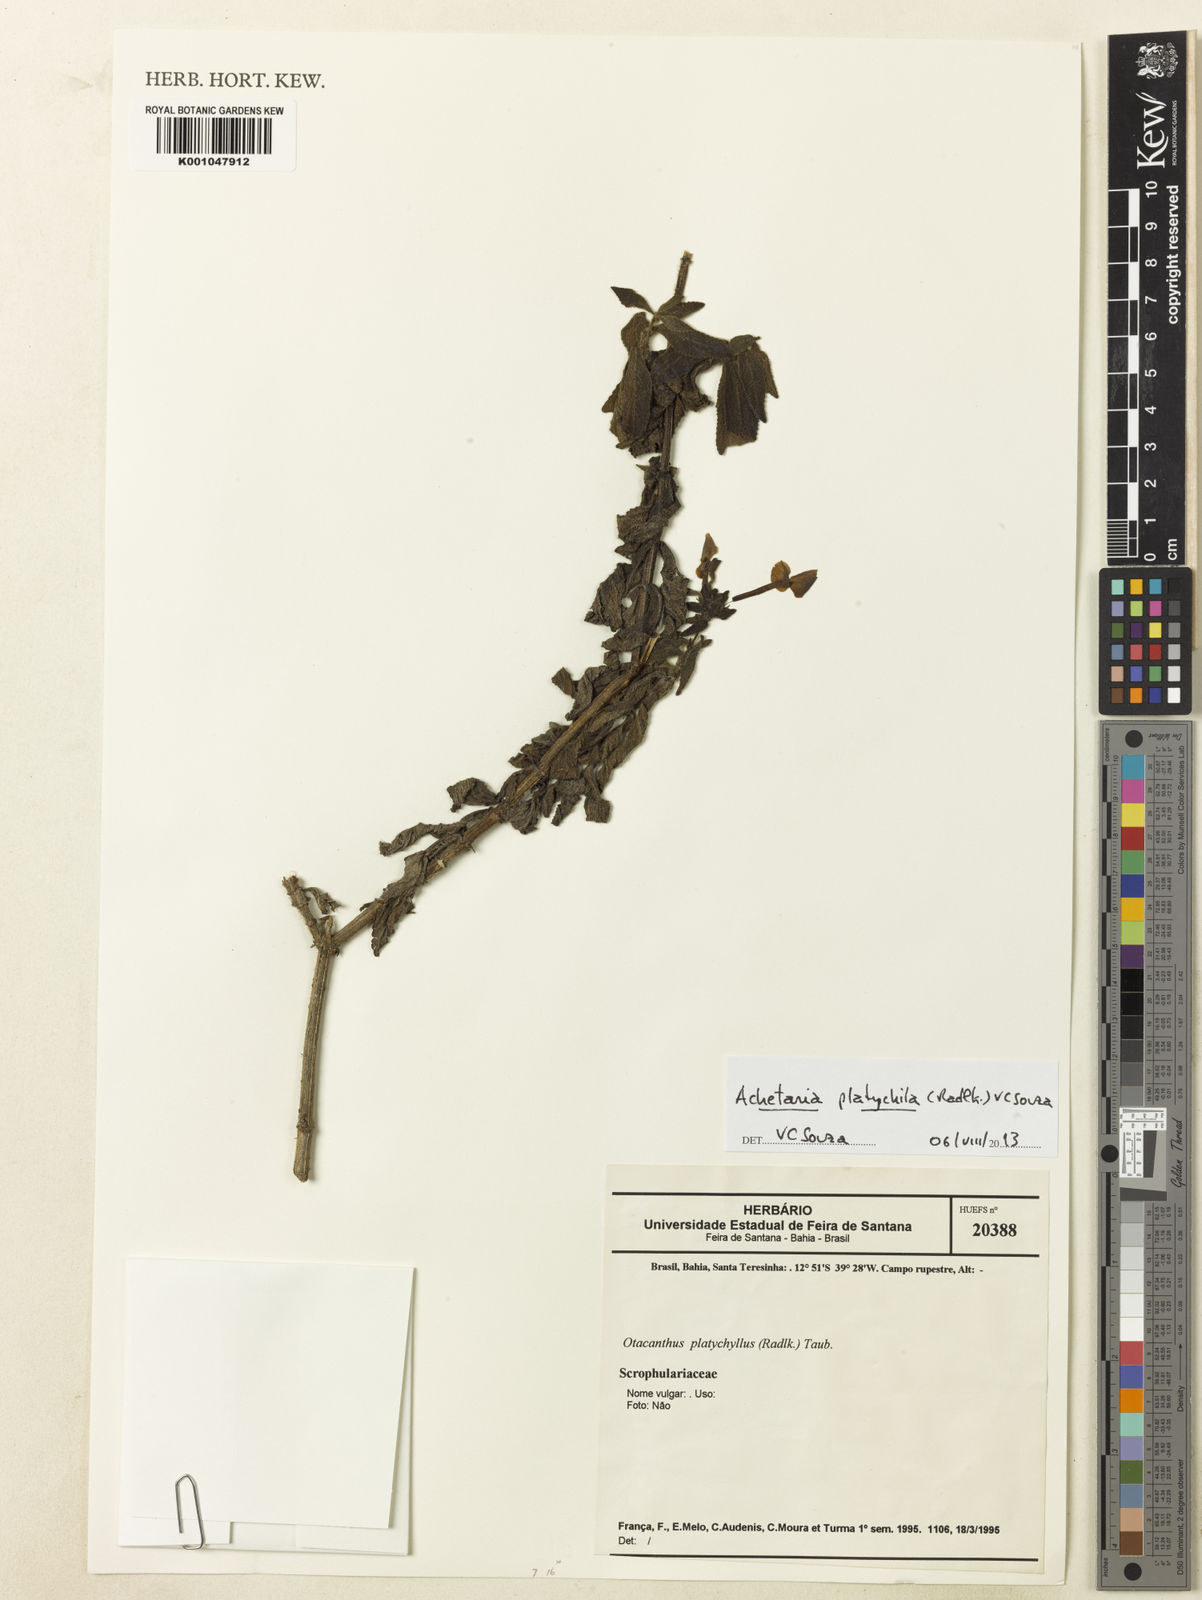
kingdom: Plantae
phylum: Tracheophyta
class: Magnoliopsida
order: Lamiales
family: Plantaginaceae
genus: Matourea
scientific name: Matourea platychila
